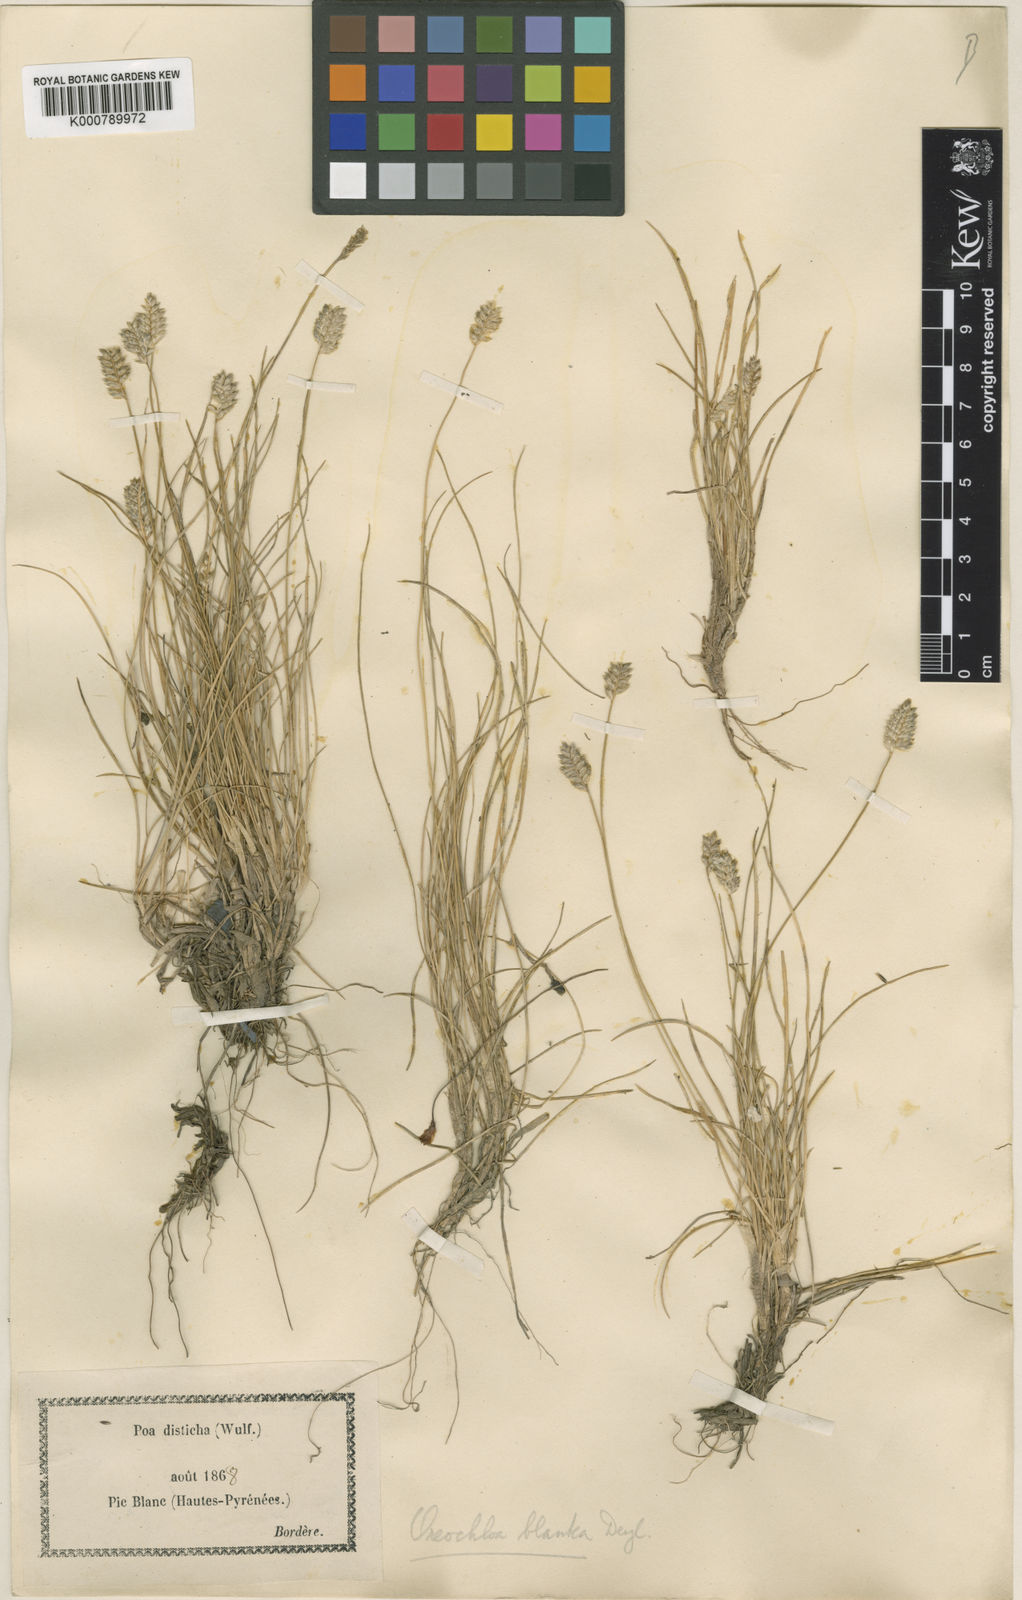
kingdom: Plantae
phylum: Tracheophyta
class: Liliopsida
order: Poales
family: Poaceae
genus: Oreochloa
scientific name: Oreochloa elegans
